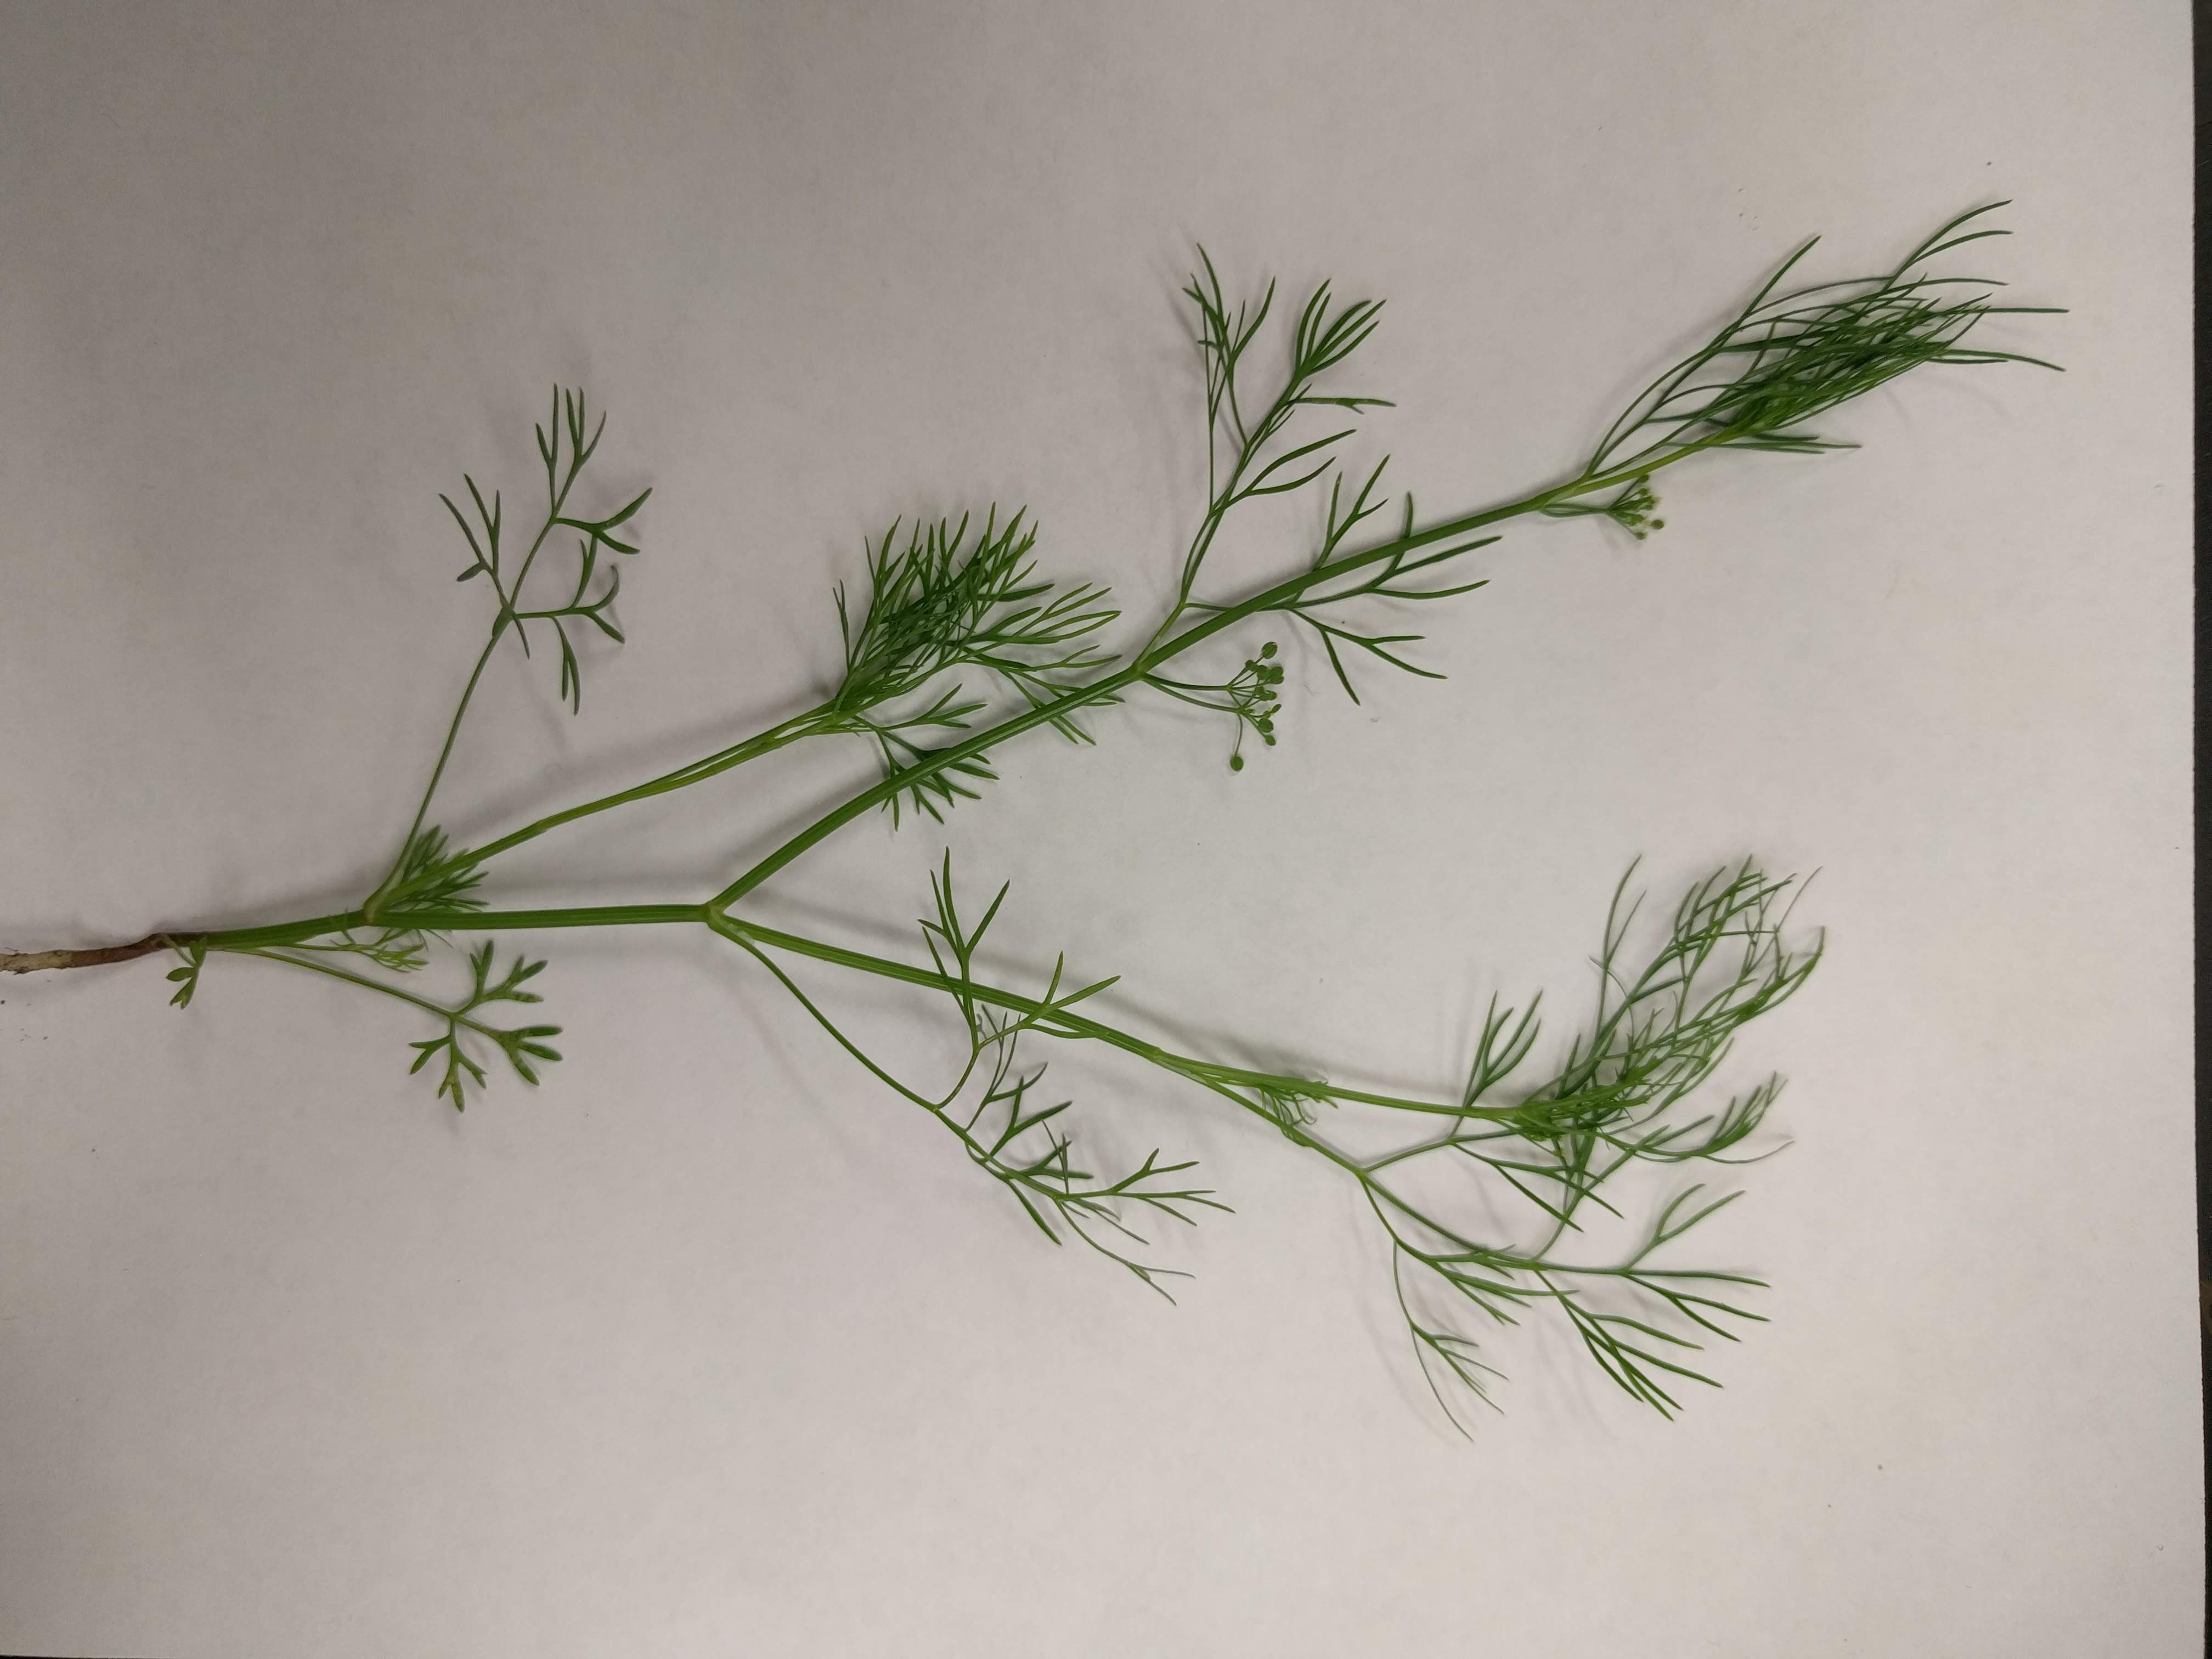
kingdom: Plantae
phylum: Tracheophyta
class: Magnoliopsida
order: Apiales
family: Apiaceae
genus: Cyclospermum
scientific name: Cyclospermum leptophyllum
